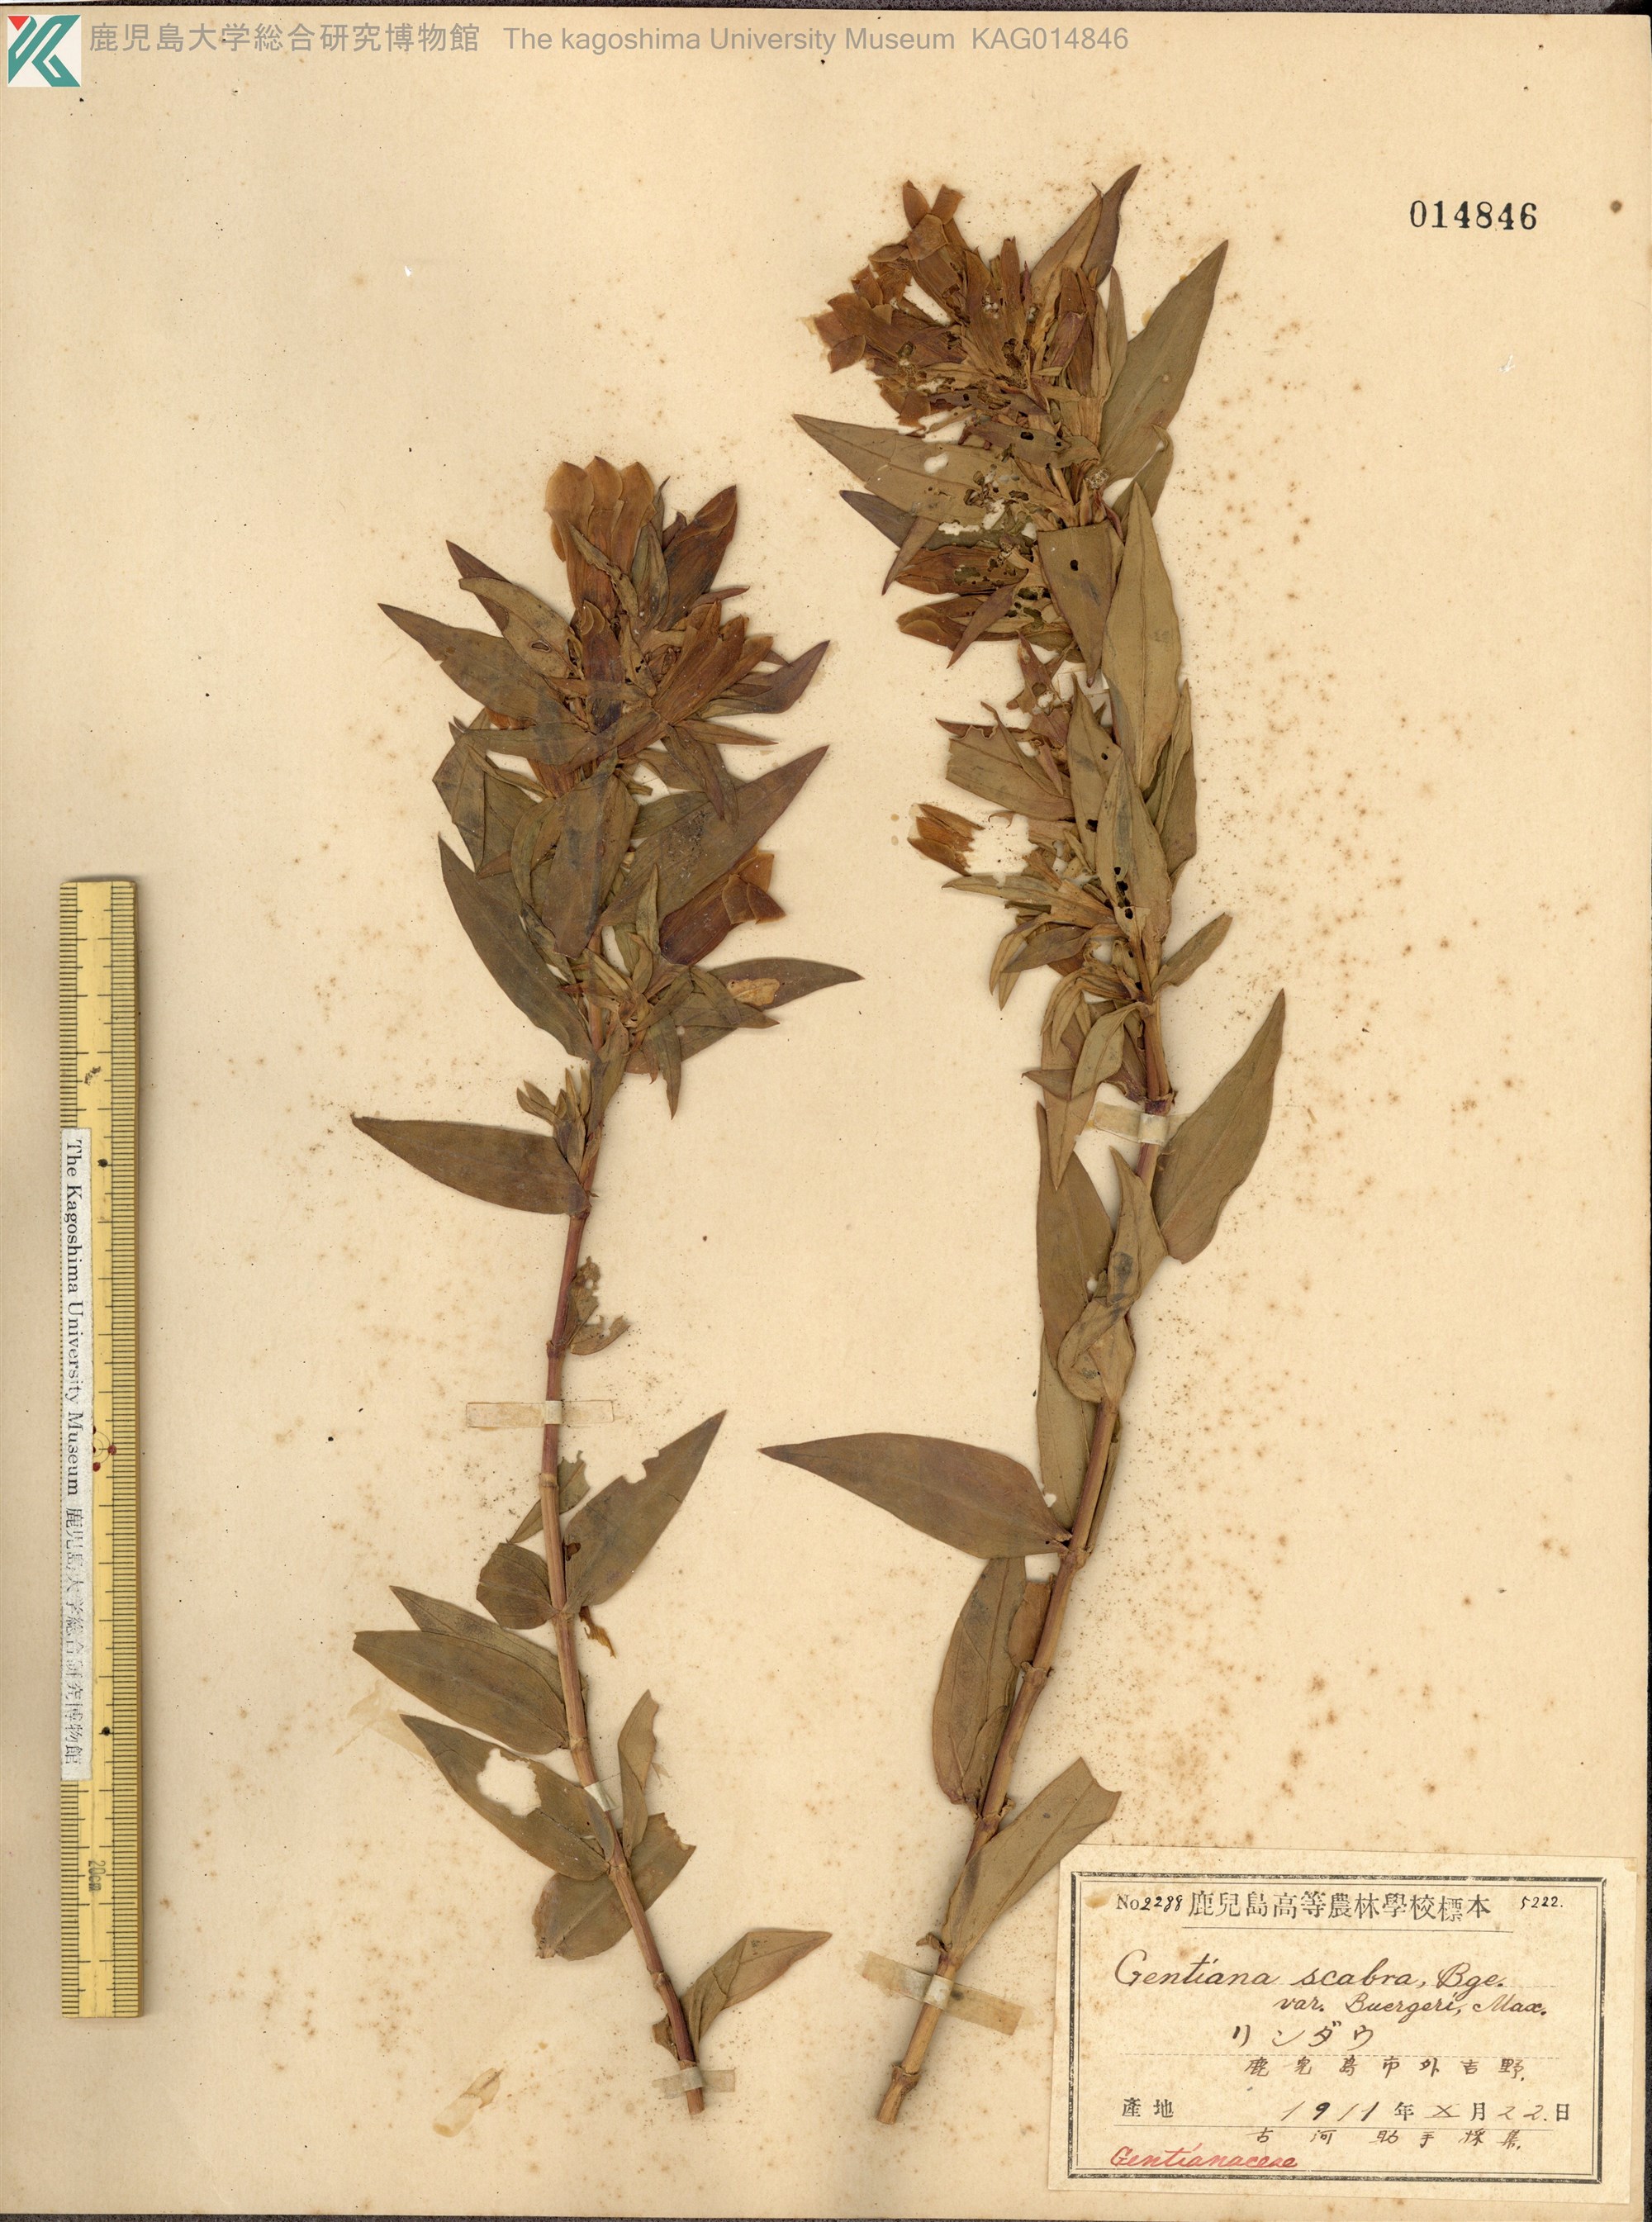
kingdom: Plantae
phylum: Tracheophyta
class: Magnoliopsida
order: Gentianales
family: Gentianaceae
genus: Gentiana
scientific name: Gentiana scabra
